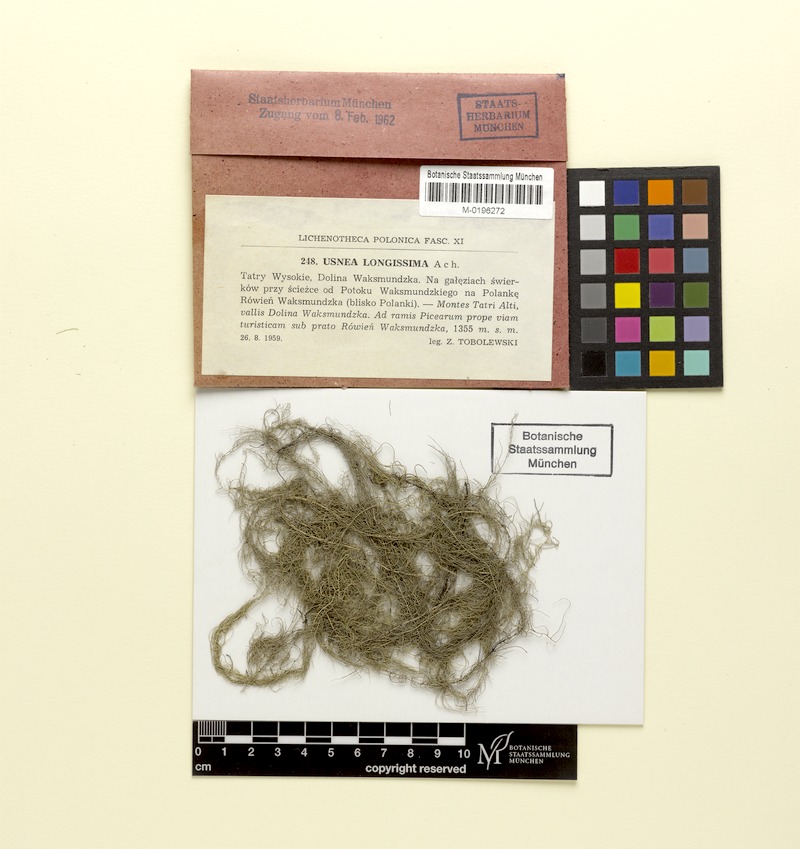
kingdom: Fungi
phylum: Ascomycota
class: Lecanoromycetes
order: Lecanorales
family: Parmeliaceae
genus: Dolichousnea
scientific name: Dolichousnea longissima
